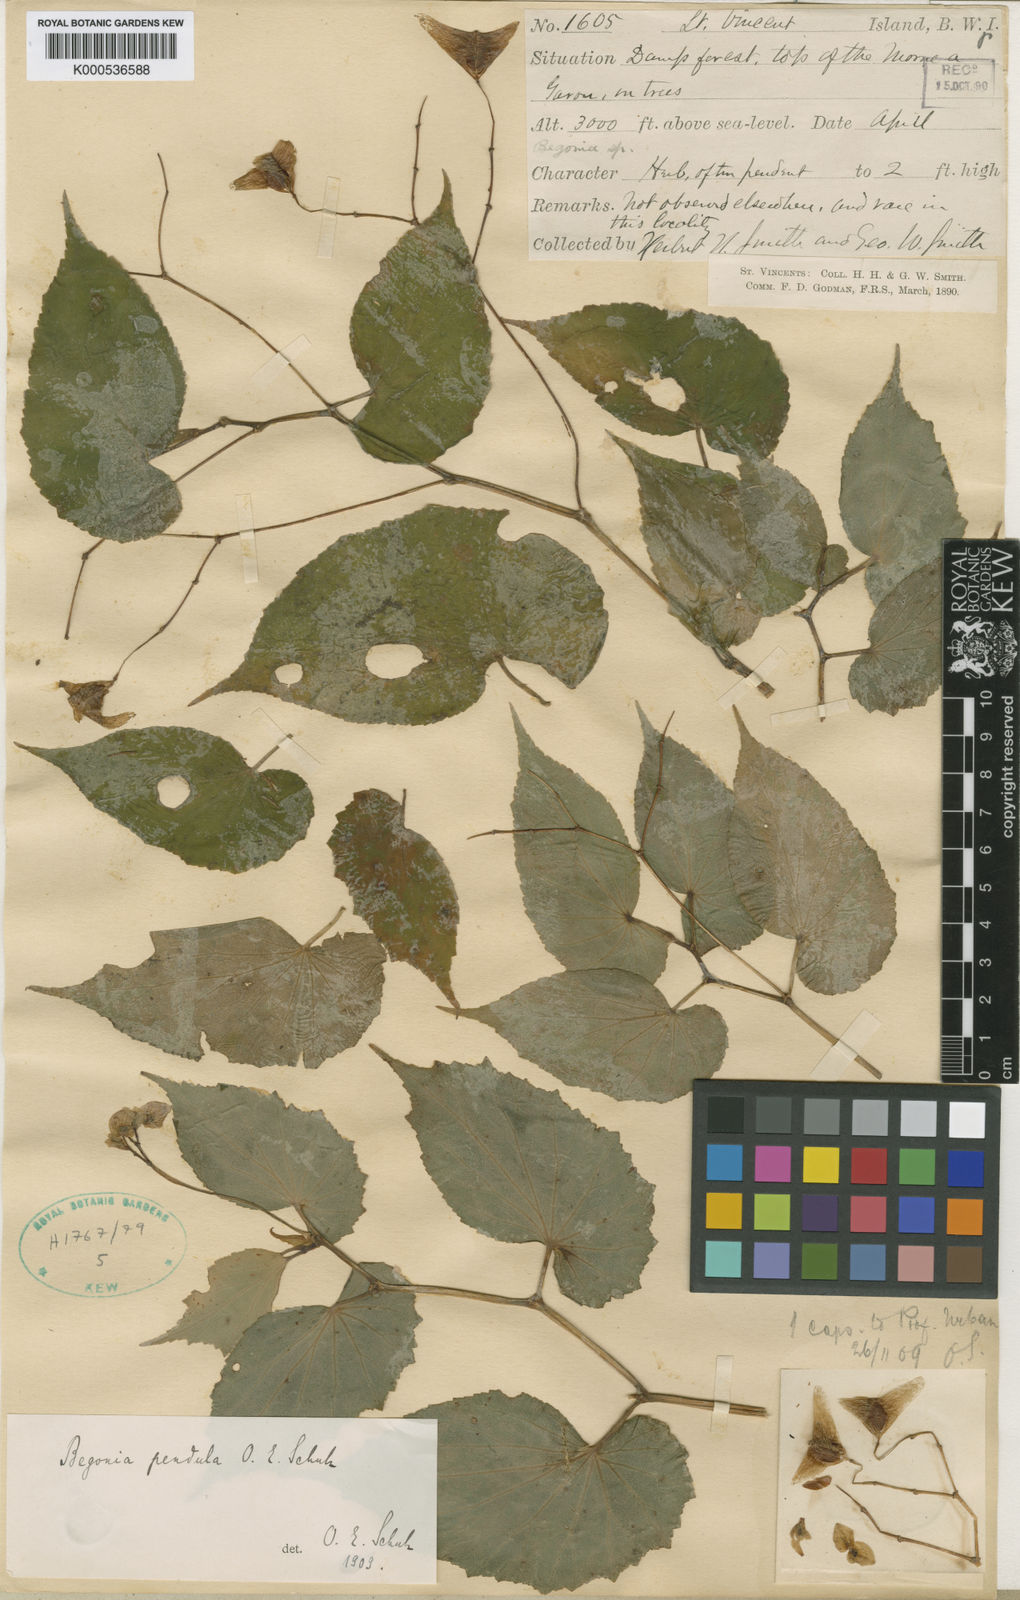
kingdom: Plantae
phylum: Tracheophyta
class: Magnoliopsida
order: Cucurbitales
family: Begoniaceae
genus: Begonia
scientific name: Begonia pensilis
